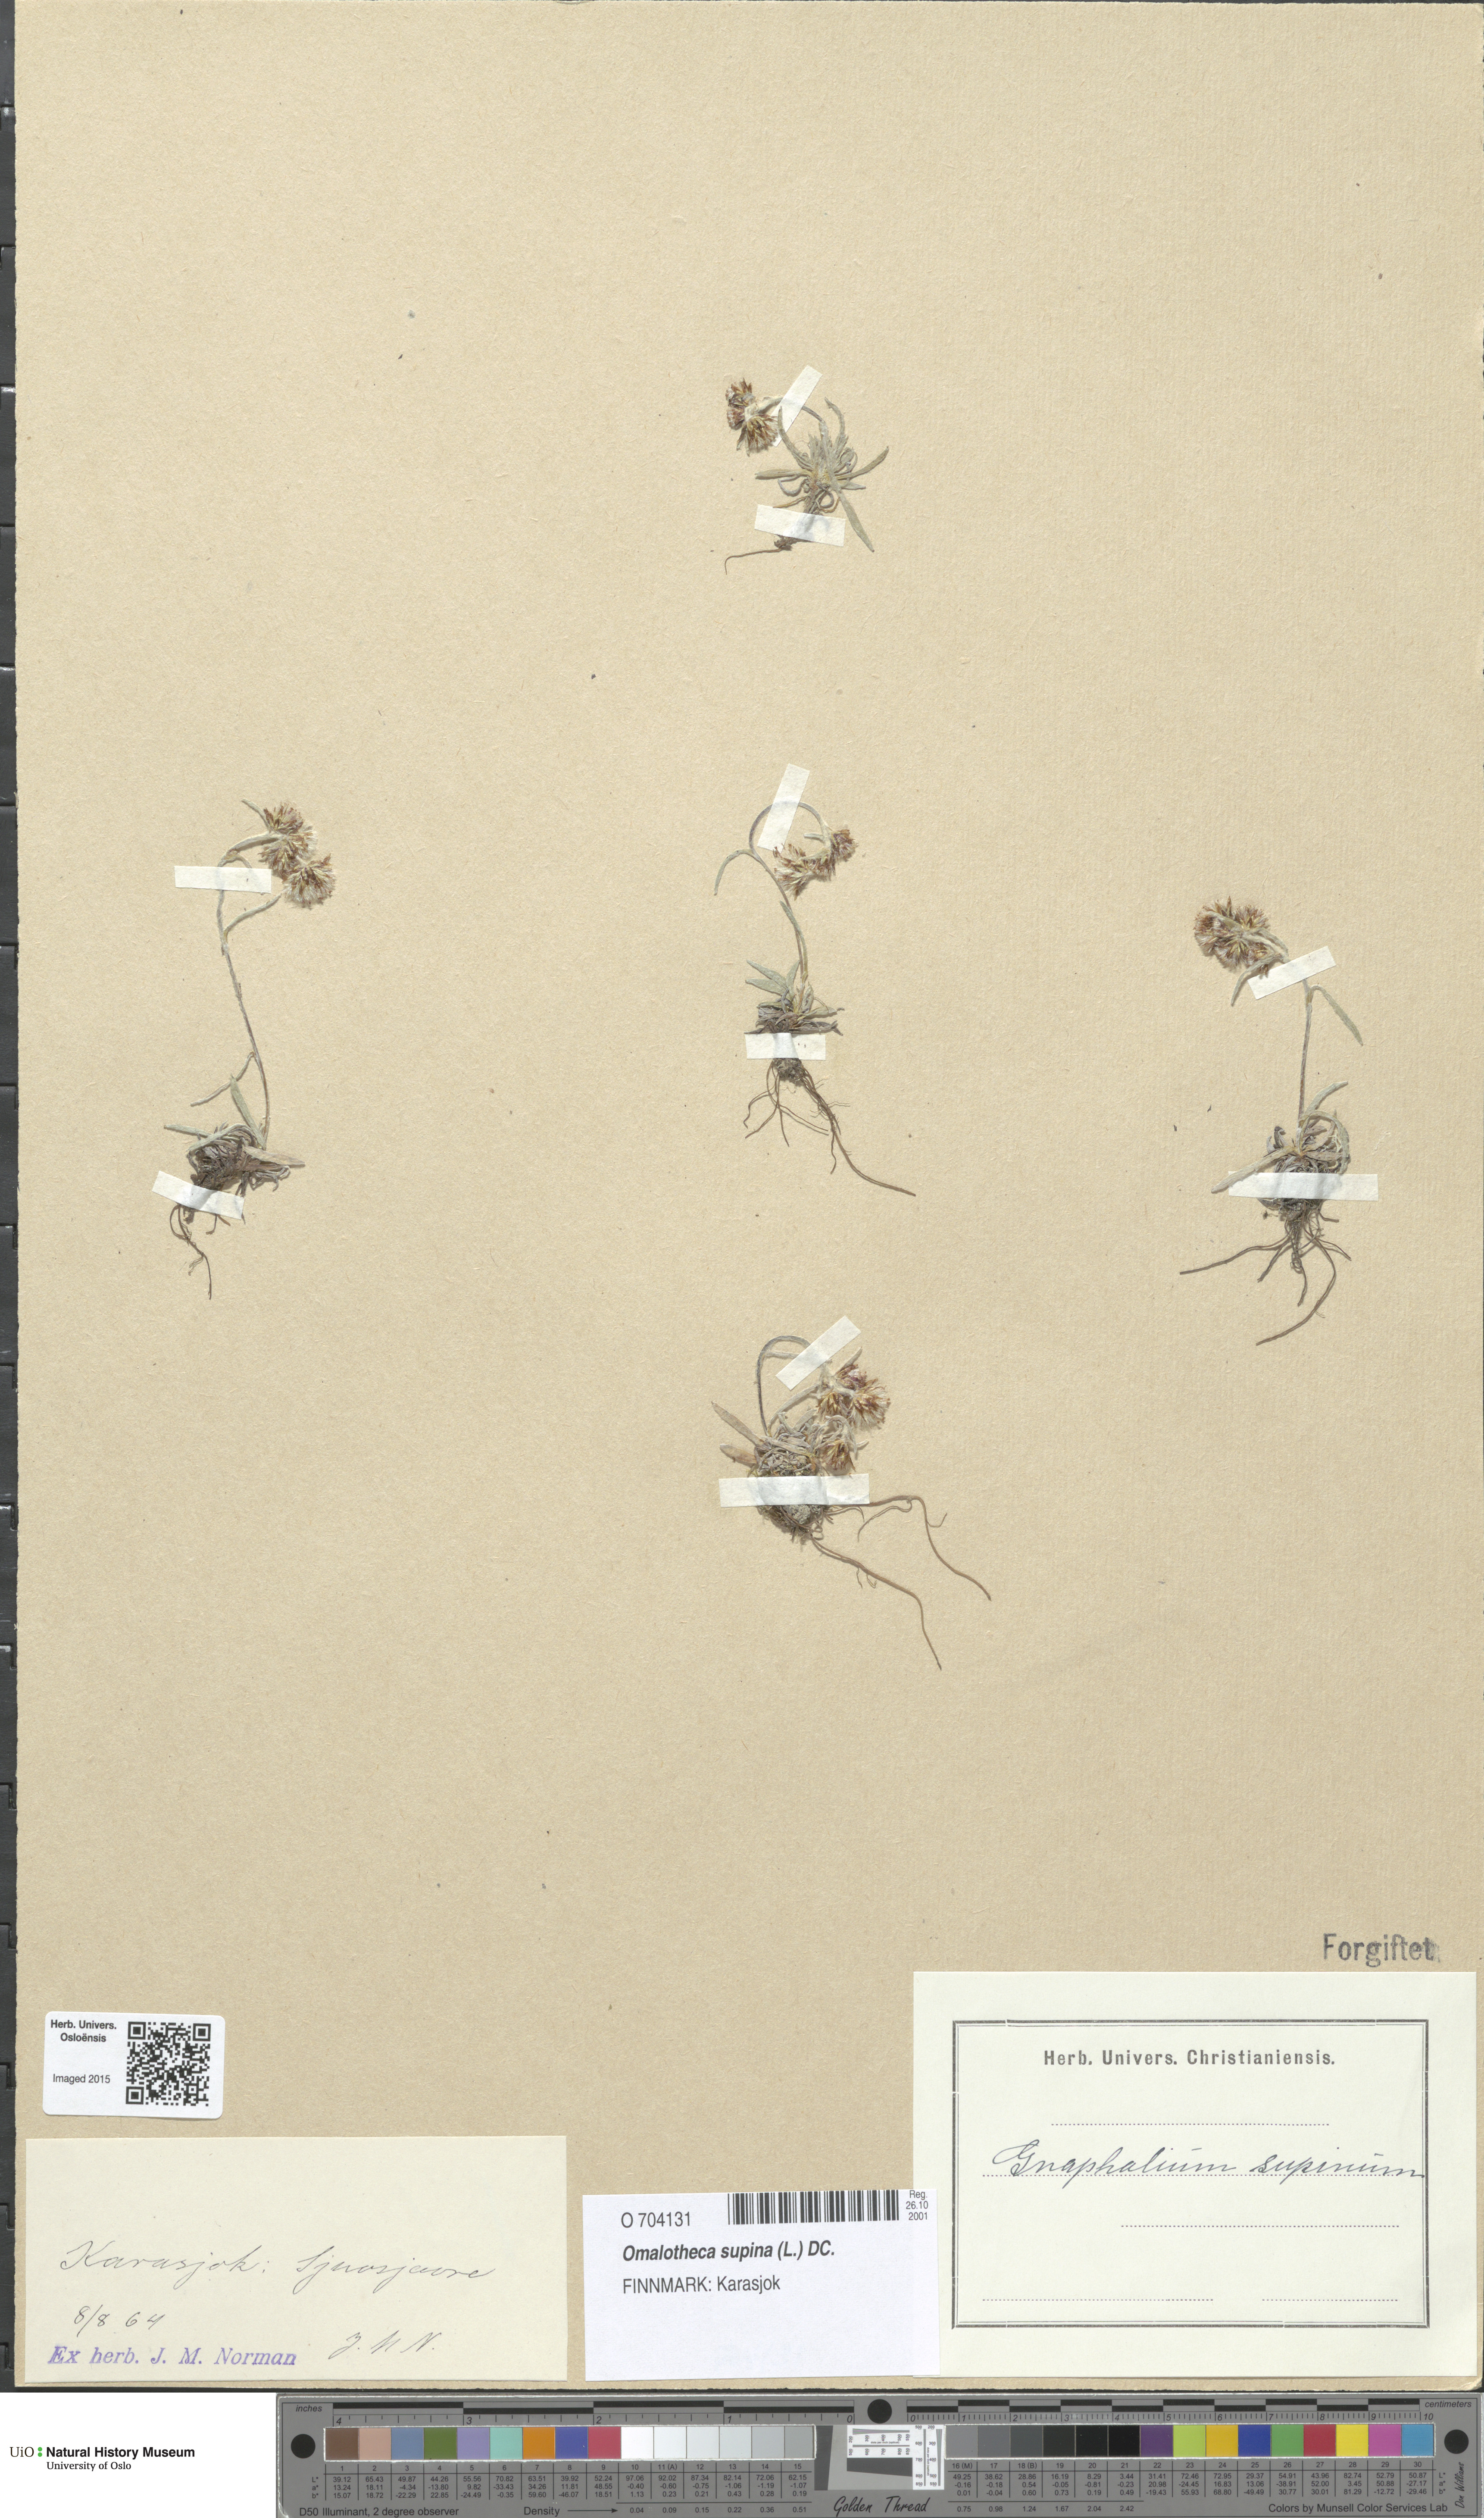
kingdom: Plantae
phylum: Tracheophyta
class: Magnoliopsida
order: Asterales
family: Asteraceae
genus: Omalotheca
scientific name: Omalotheca supina
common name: Alpine arctic-cudweed
